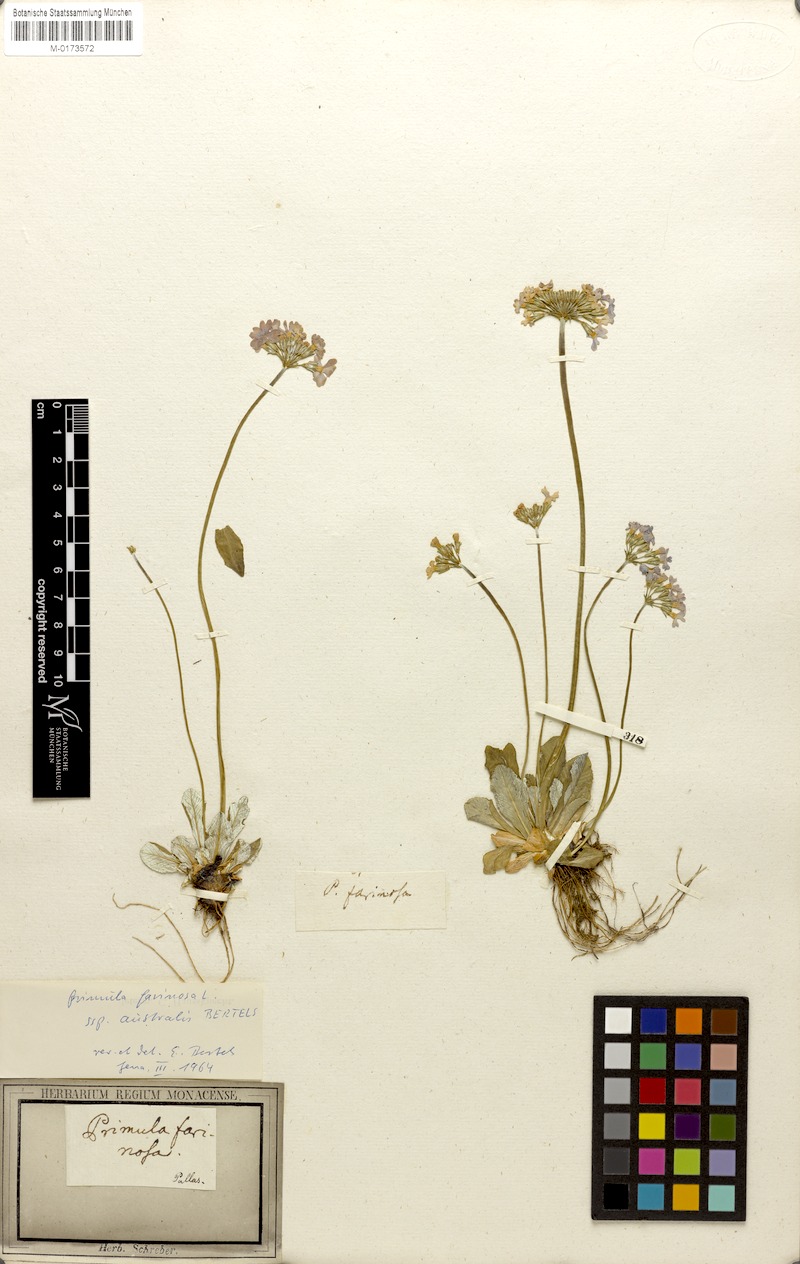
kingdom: Plantae
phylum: Tracheophyta
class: Magnoliopsida
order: Ericales
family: Primulaceae
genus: Primula
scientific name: Primula farinosa
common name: Bird's-eye primrose
